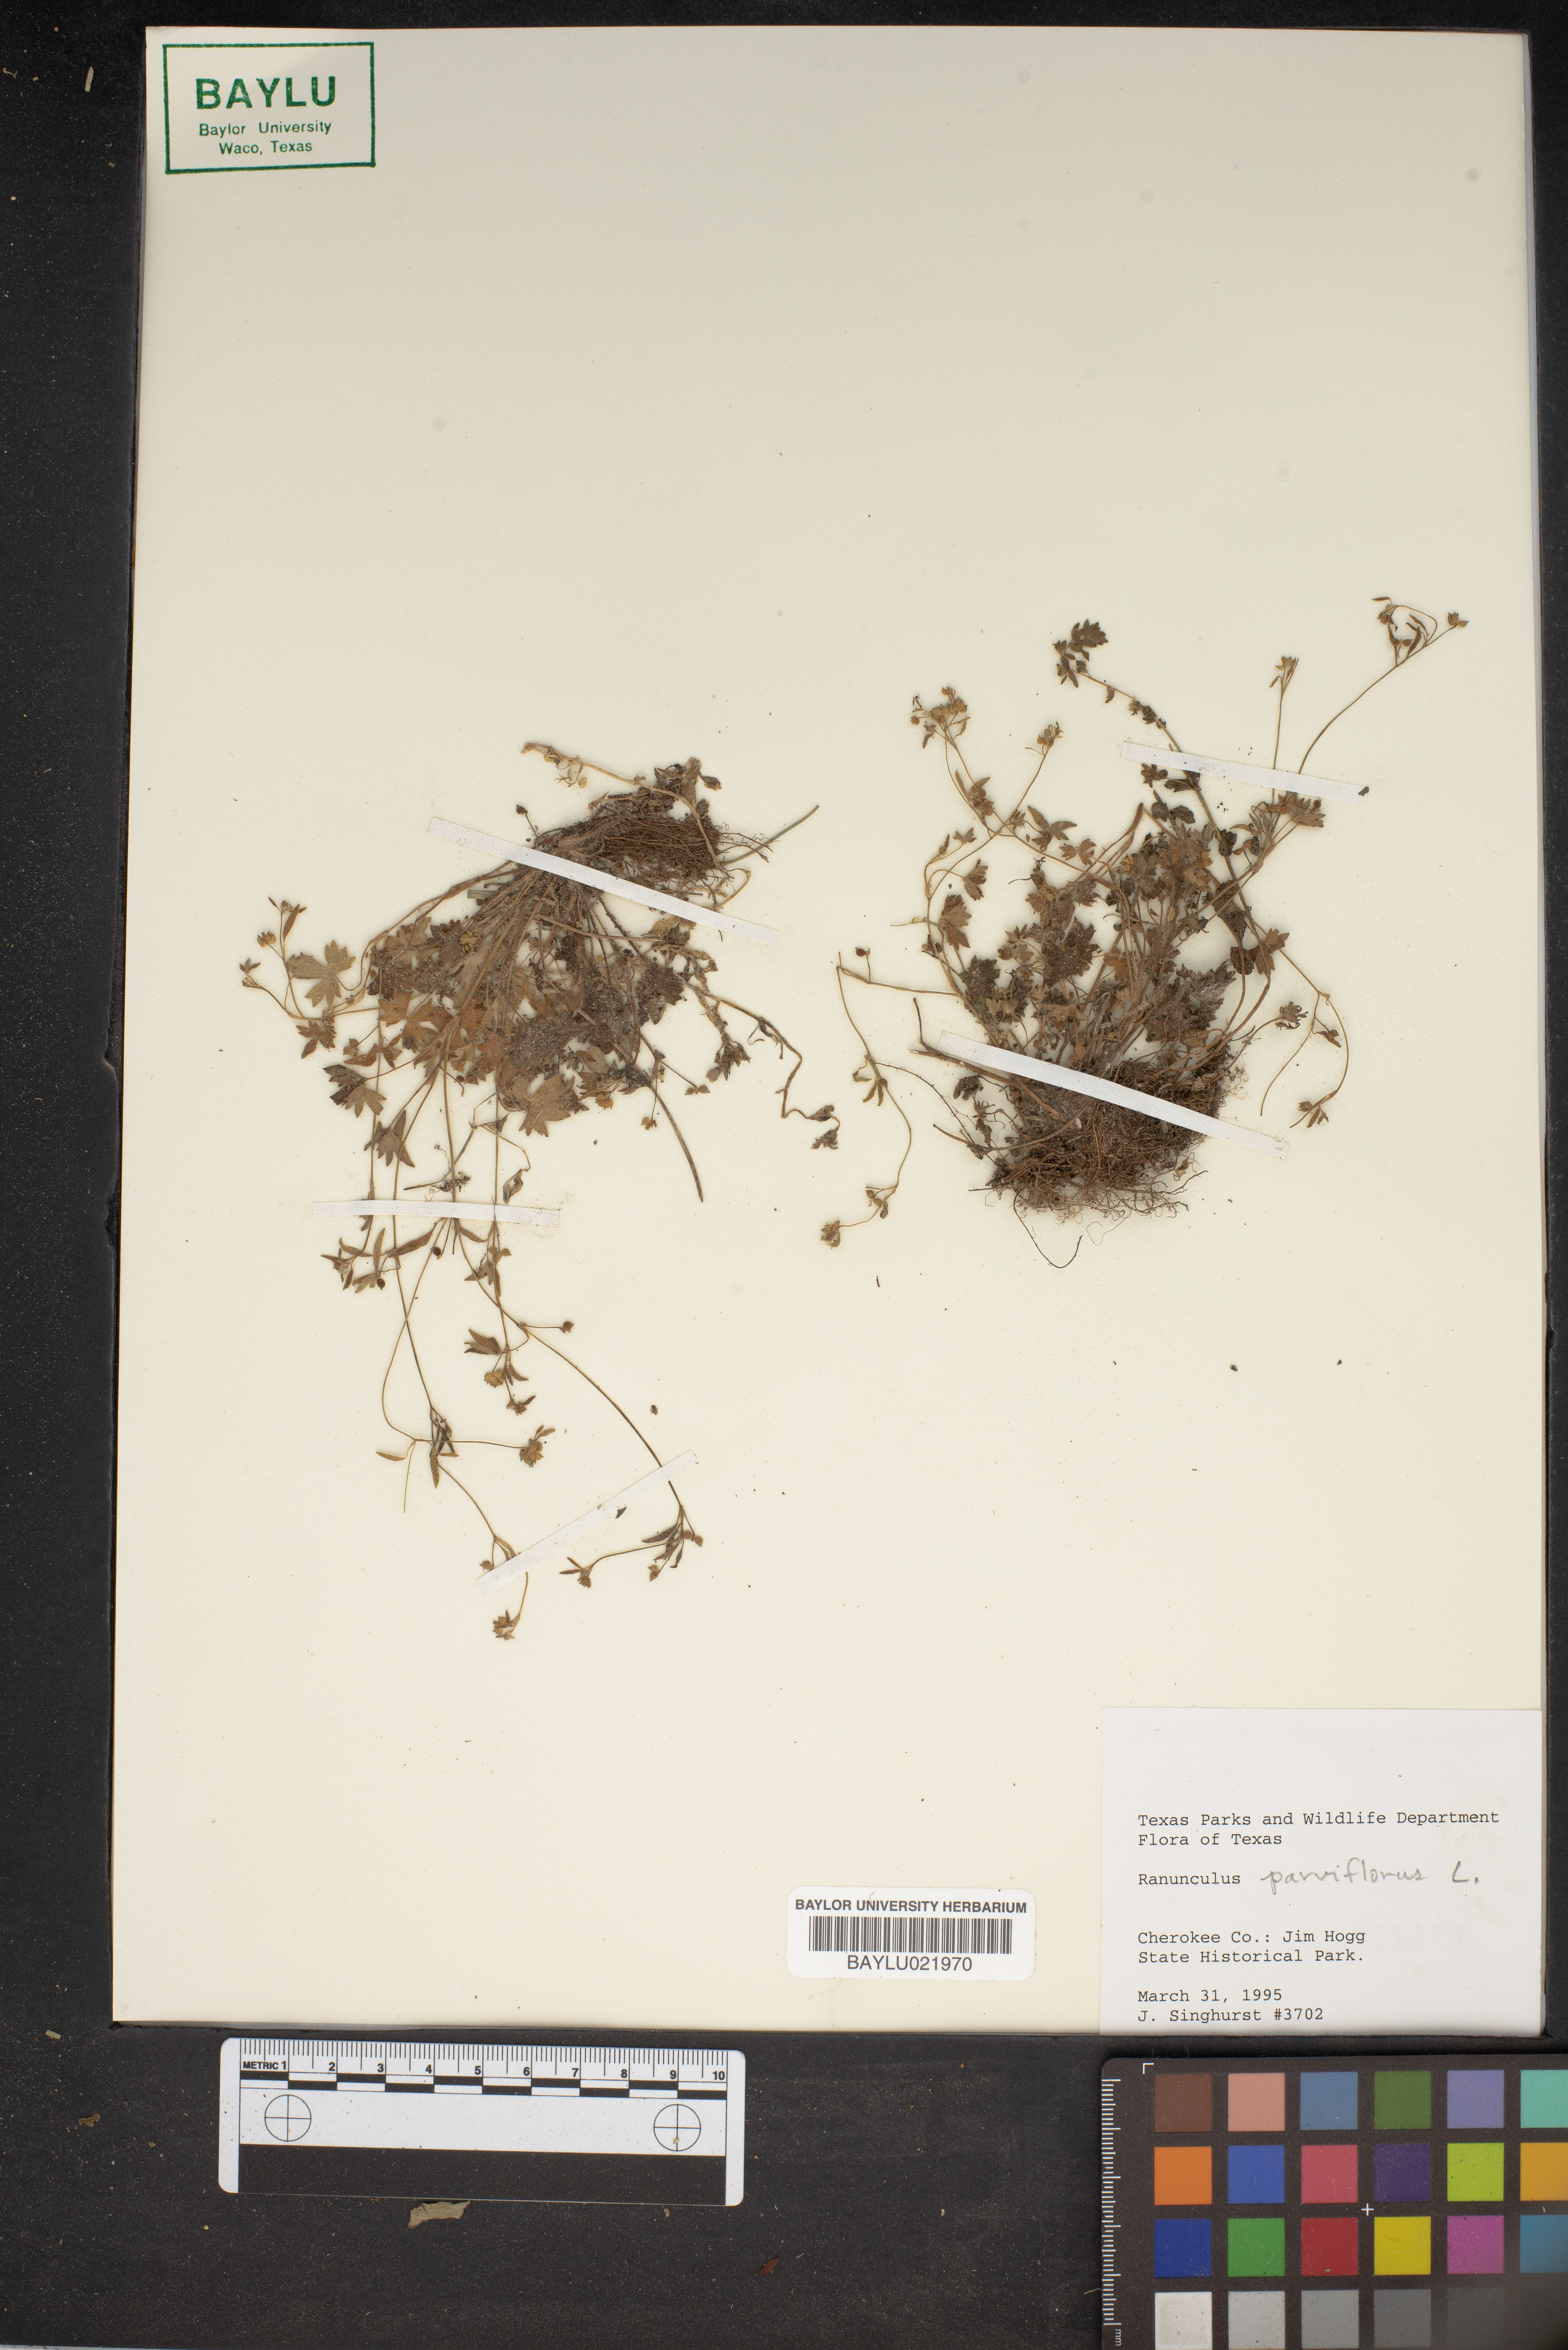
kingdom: Plantae
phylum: Tracheophyta
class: Magnoliopsida
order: Ranunculales
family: Ranunculaceae
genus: Ranunculus
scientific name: Ranunculus parviflorus
